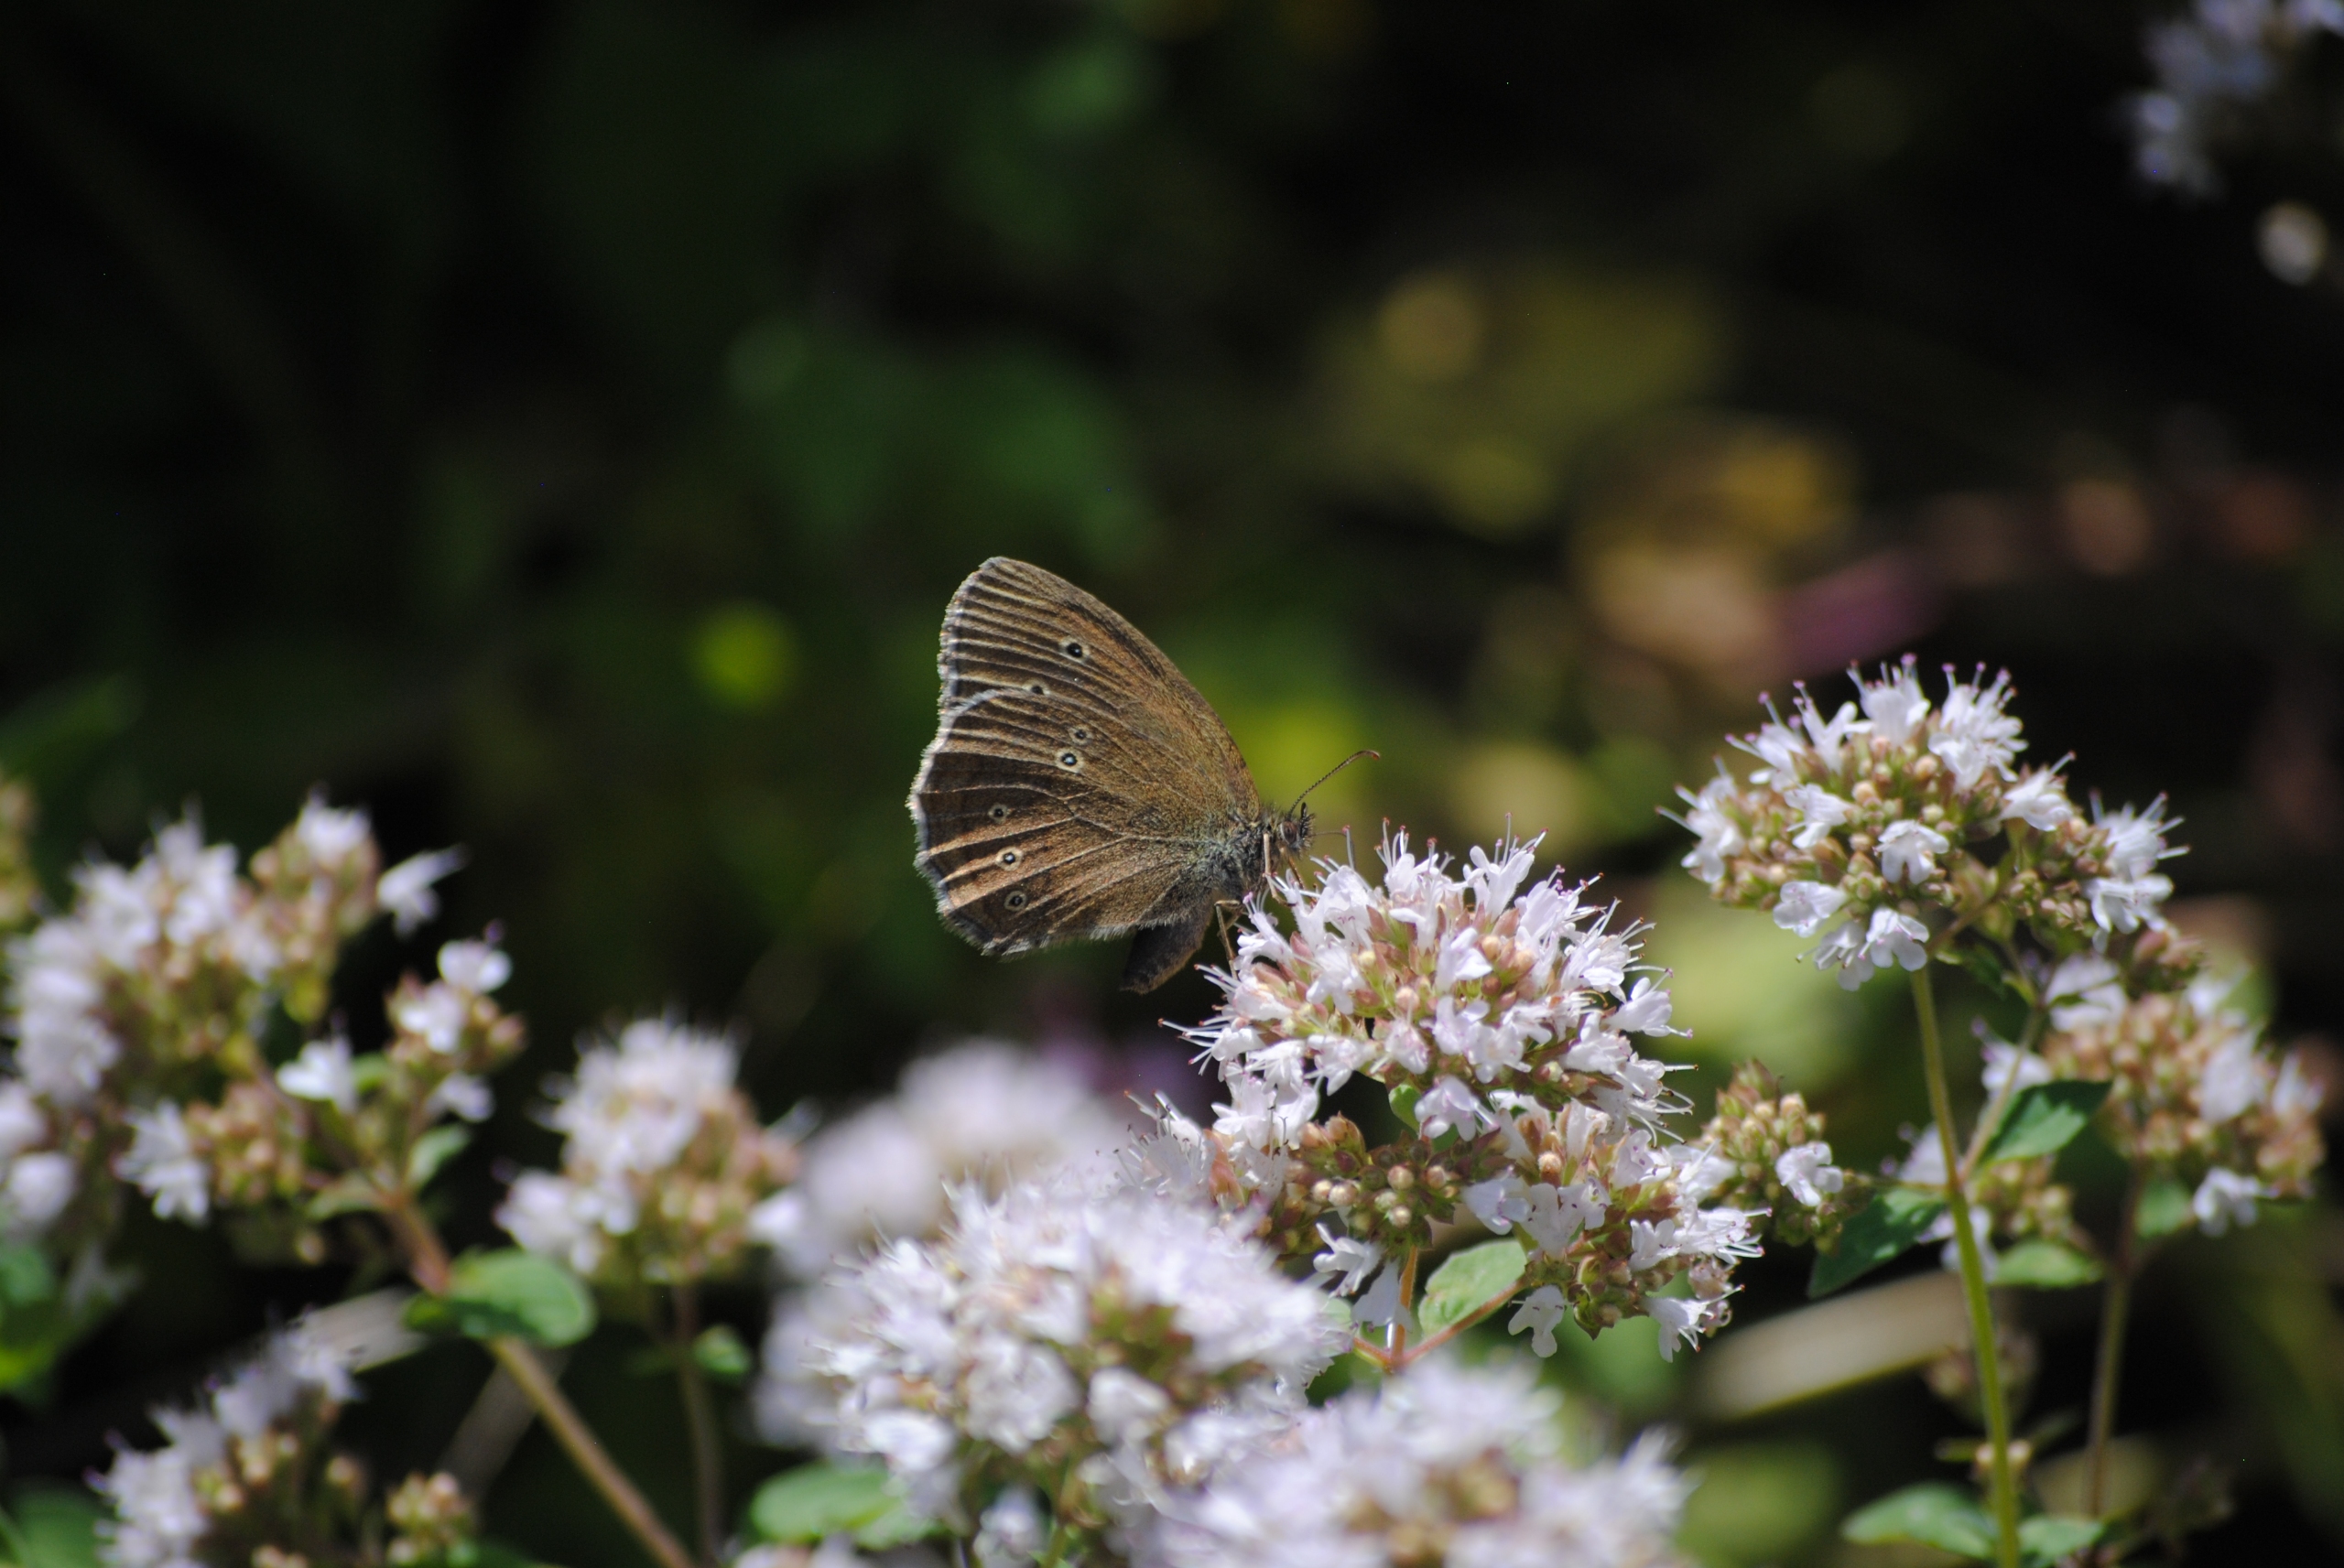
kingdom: Animalia
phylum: Arthropoda
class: Insecta
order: Lepidoptera
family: Nymphalidae
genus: Aphantopus
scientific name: Aphantopus hyperantus
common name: Engrandøje
